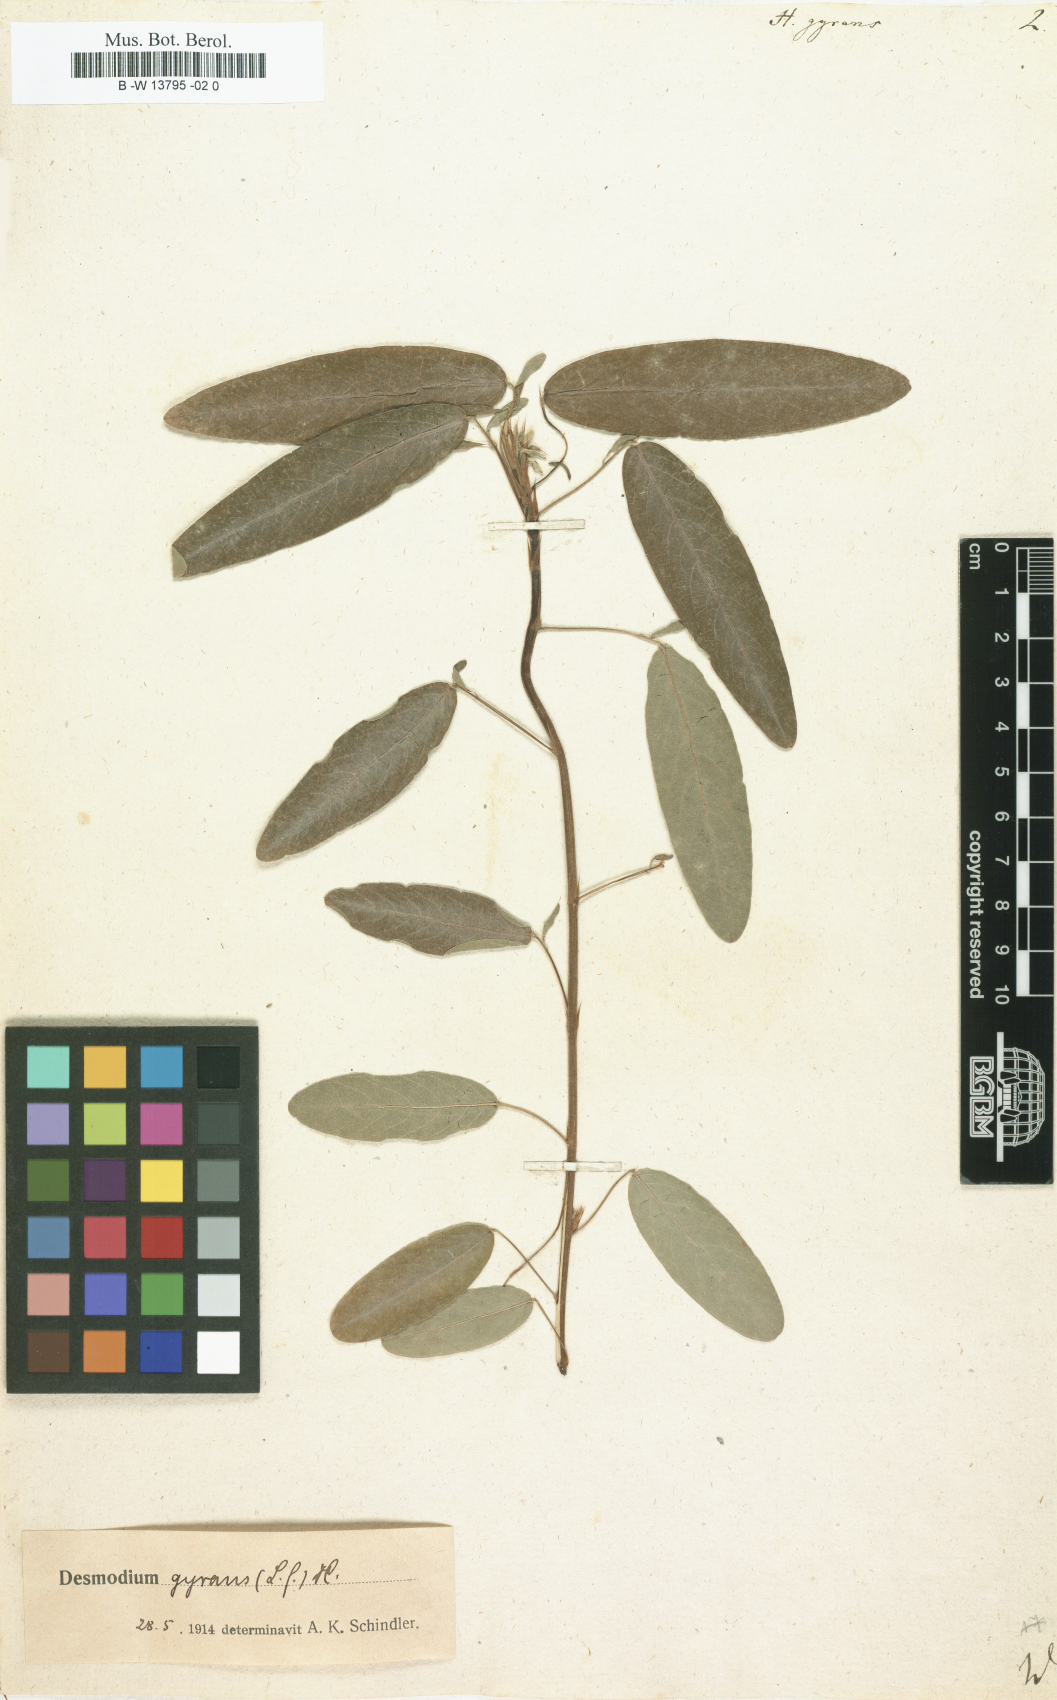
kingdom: Plantae
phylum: Tracheophyta
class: Magnoliopsida
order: Fabales
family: Fabaceae
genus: Codariocalyx
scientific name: Codariocalyx motorius
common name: Telegraph-plant
